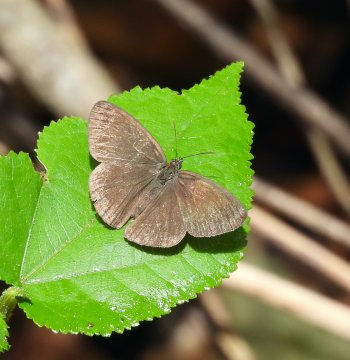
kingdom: Animalia
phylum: Arthropoda
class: Insecta
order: Lepidoptera
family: Nymphalidae
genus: Hermeuptychia
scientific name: Hermeuptychia hermes
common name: Carolina Satyr
